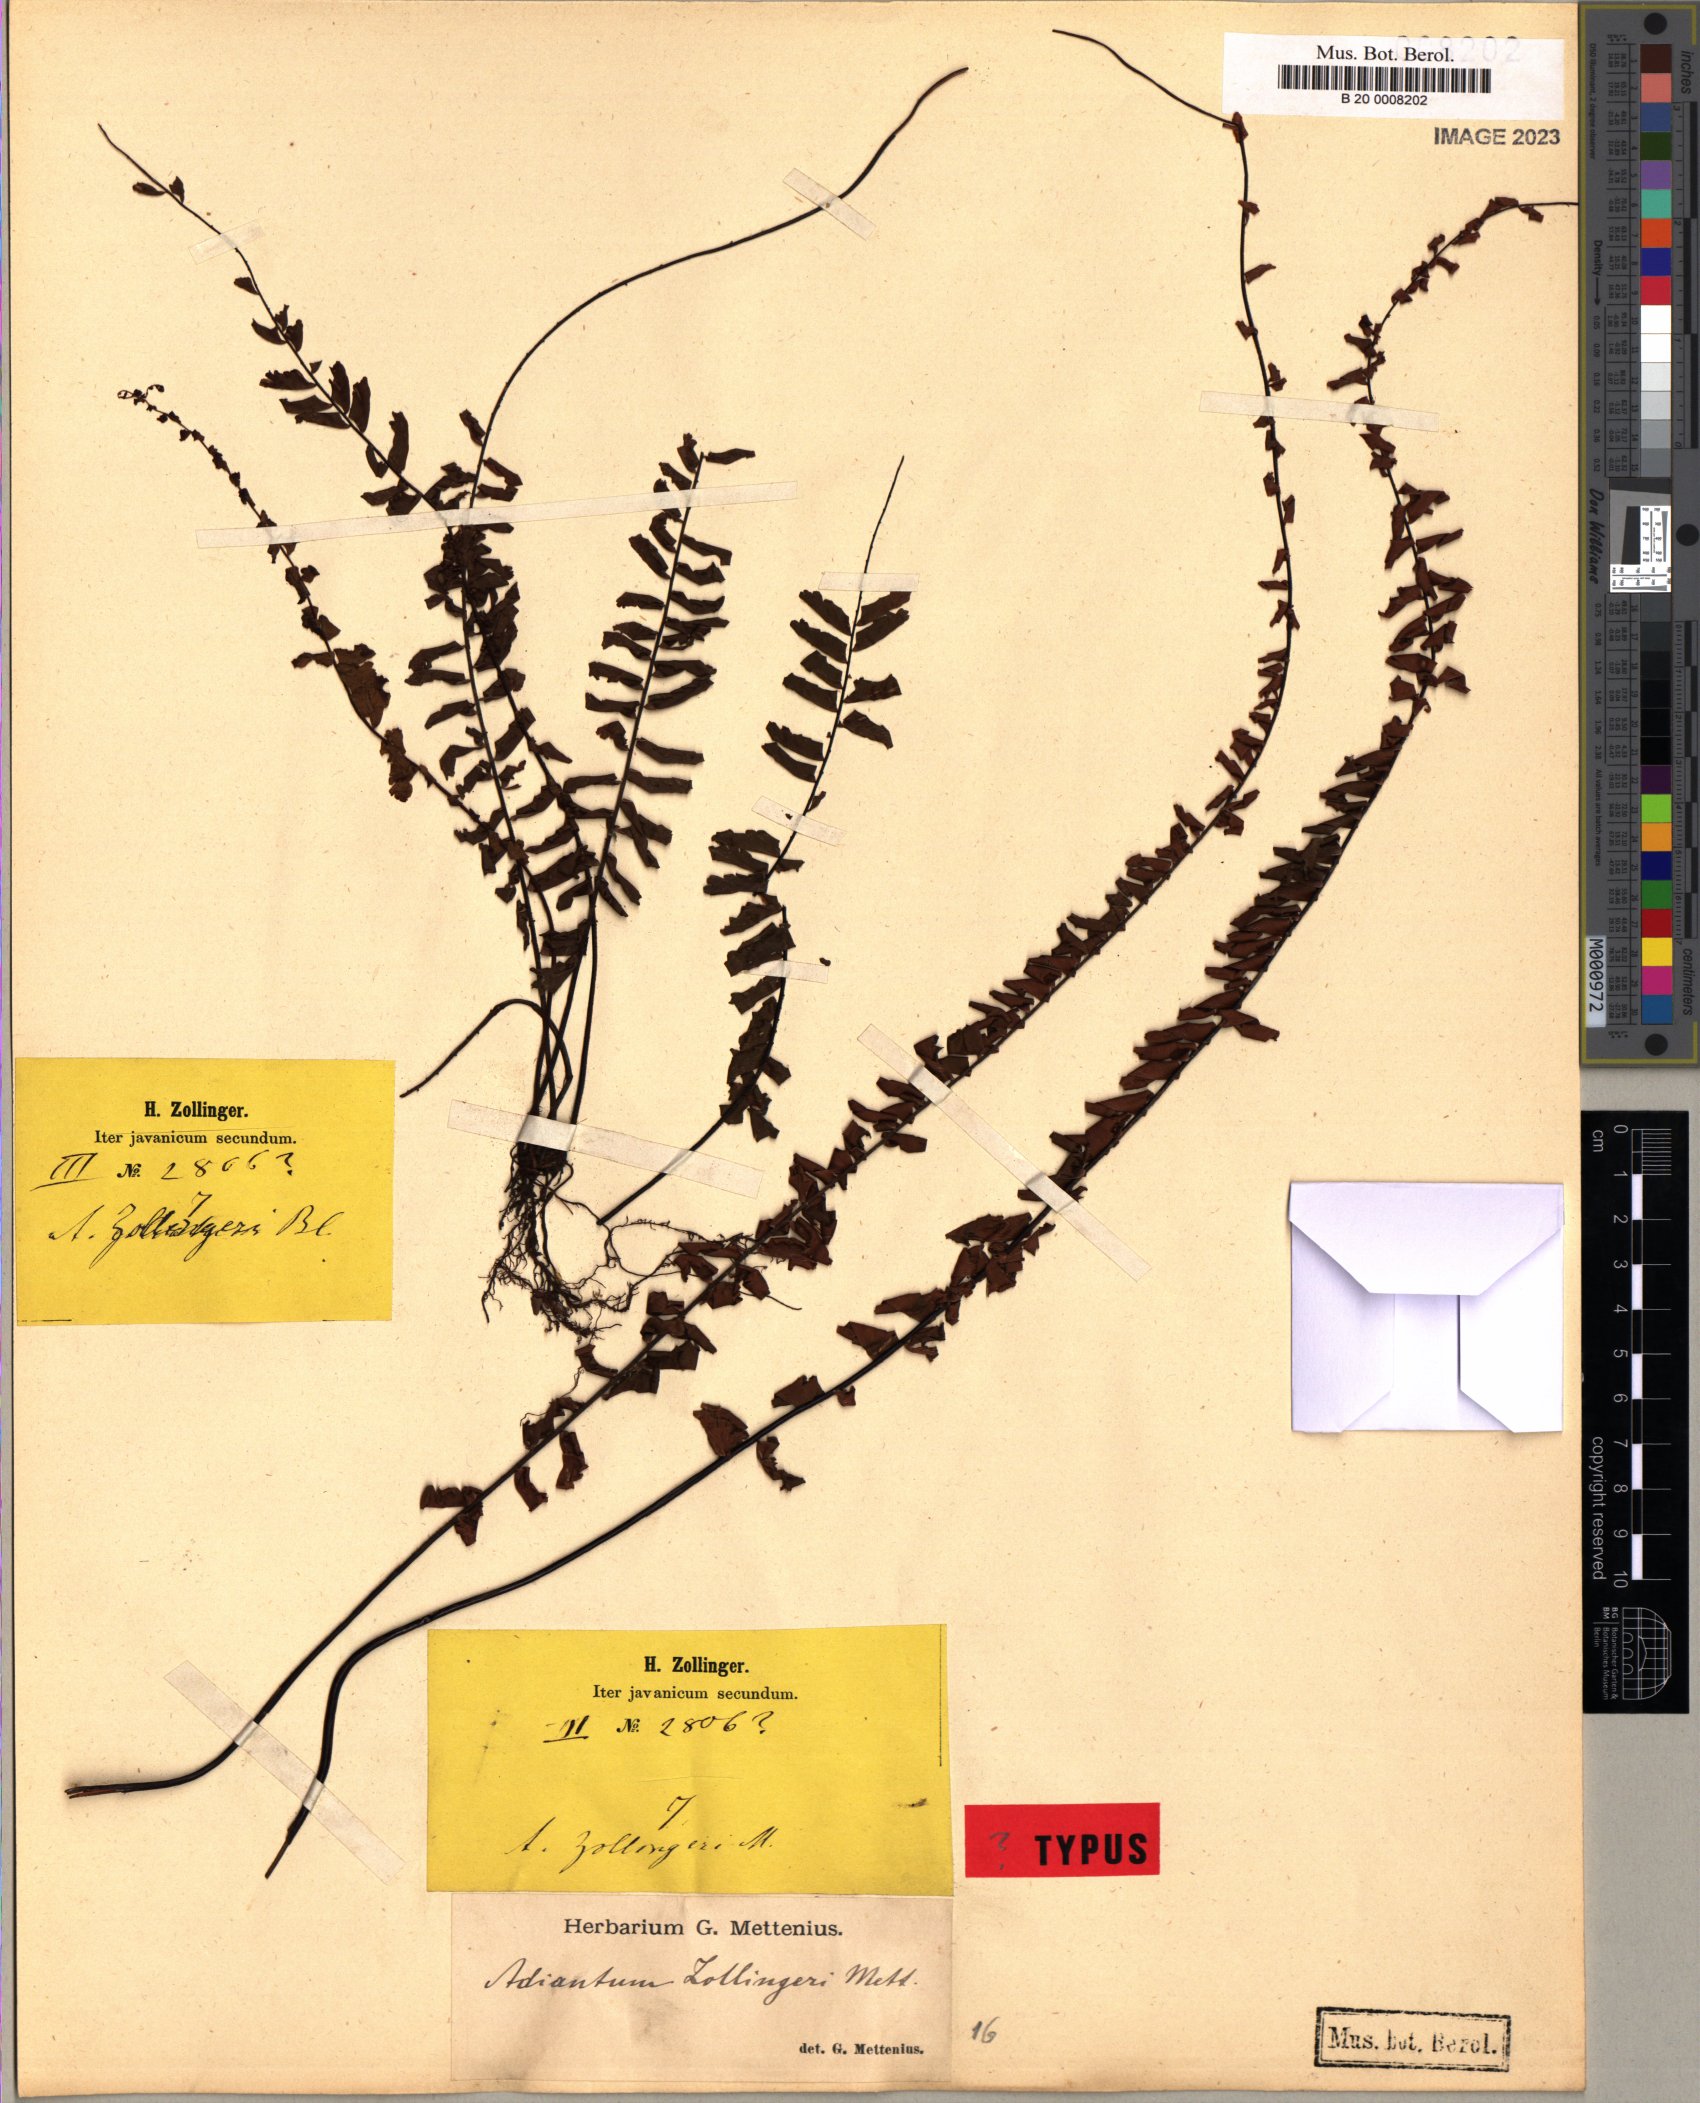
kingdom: Plantae
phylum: Tracheophyta
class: Polypodiopsida
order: Polypodiales
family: Pteridaceae
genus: Adiantum
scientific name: Adiantum zollingeri
